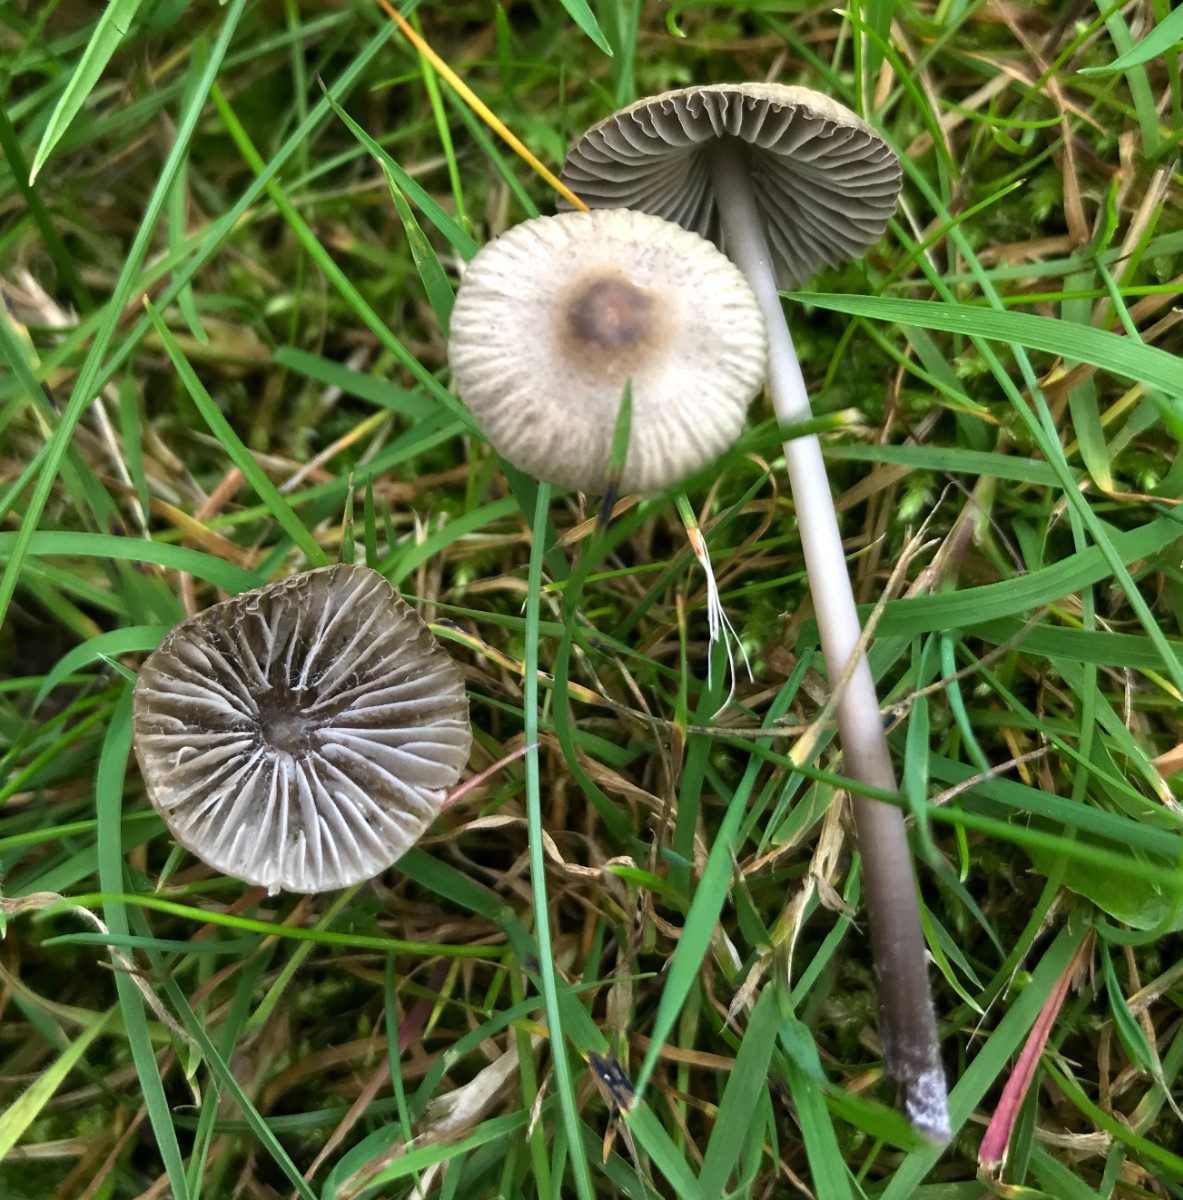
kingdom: Fungi
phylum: Basidiomycota
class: Agaricomycetes
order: Agaricales
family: Mycenaceae
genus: Mycena
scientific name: Mycena aetites
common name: plæne-huesvamp
